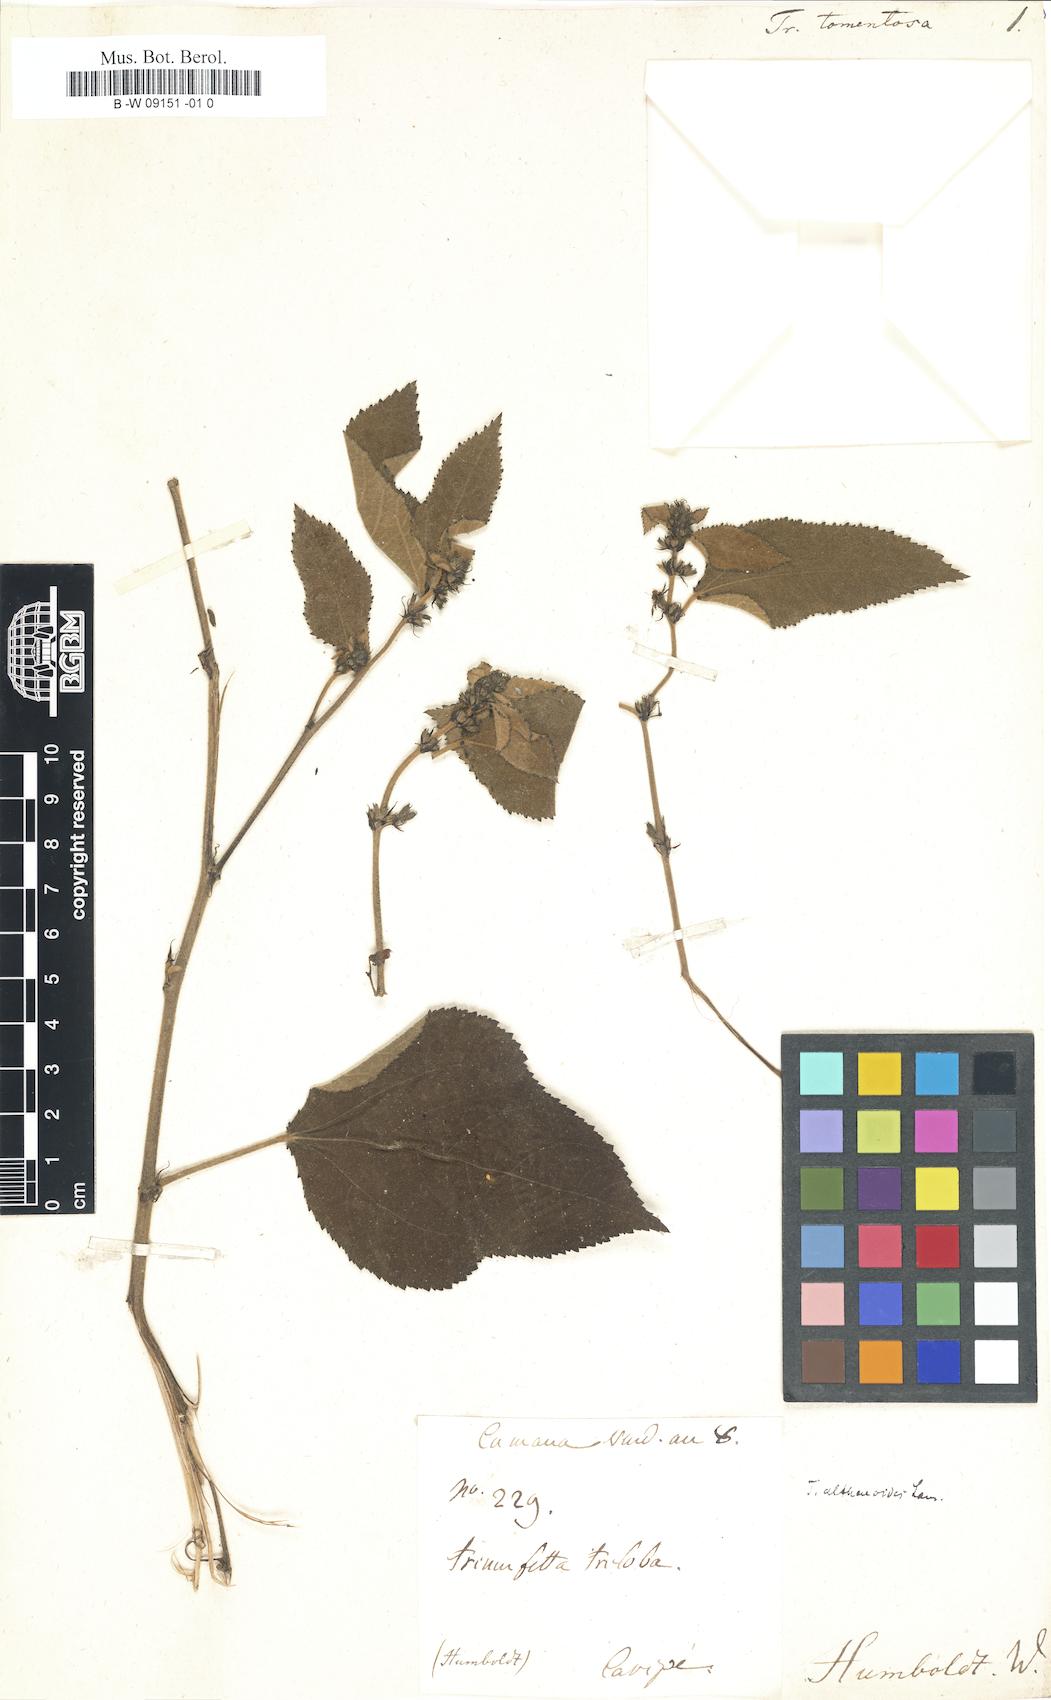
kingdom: Plantae
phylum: Tracheophyta
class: Magnoliopsida
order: Malvales
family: Malvaceae
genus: Triumfetta
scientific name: Triumfetta tomentosa
